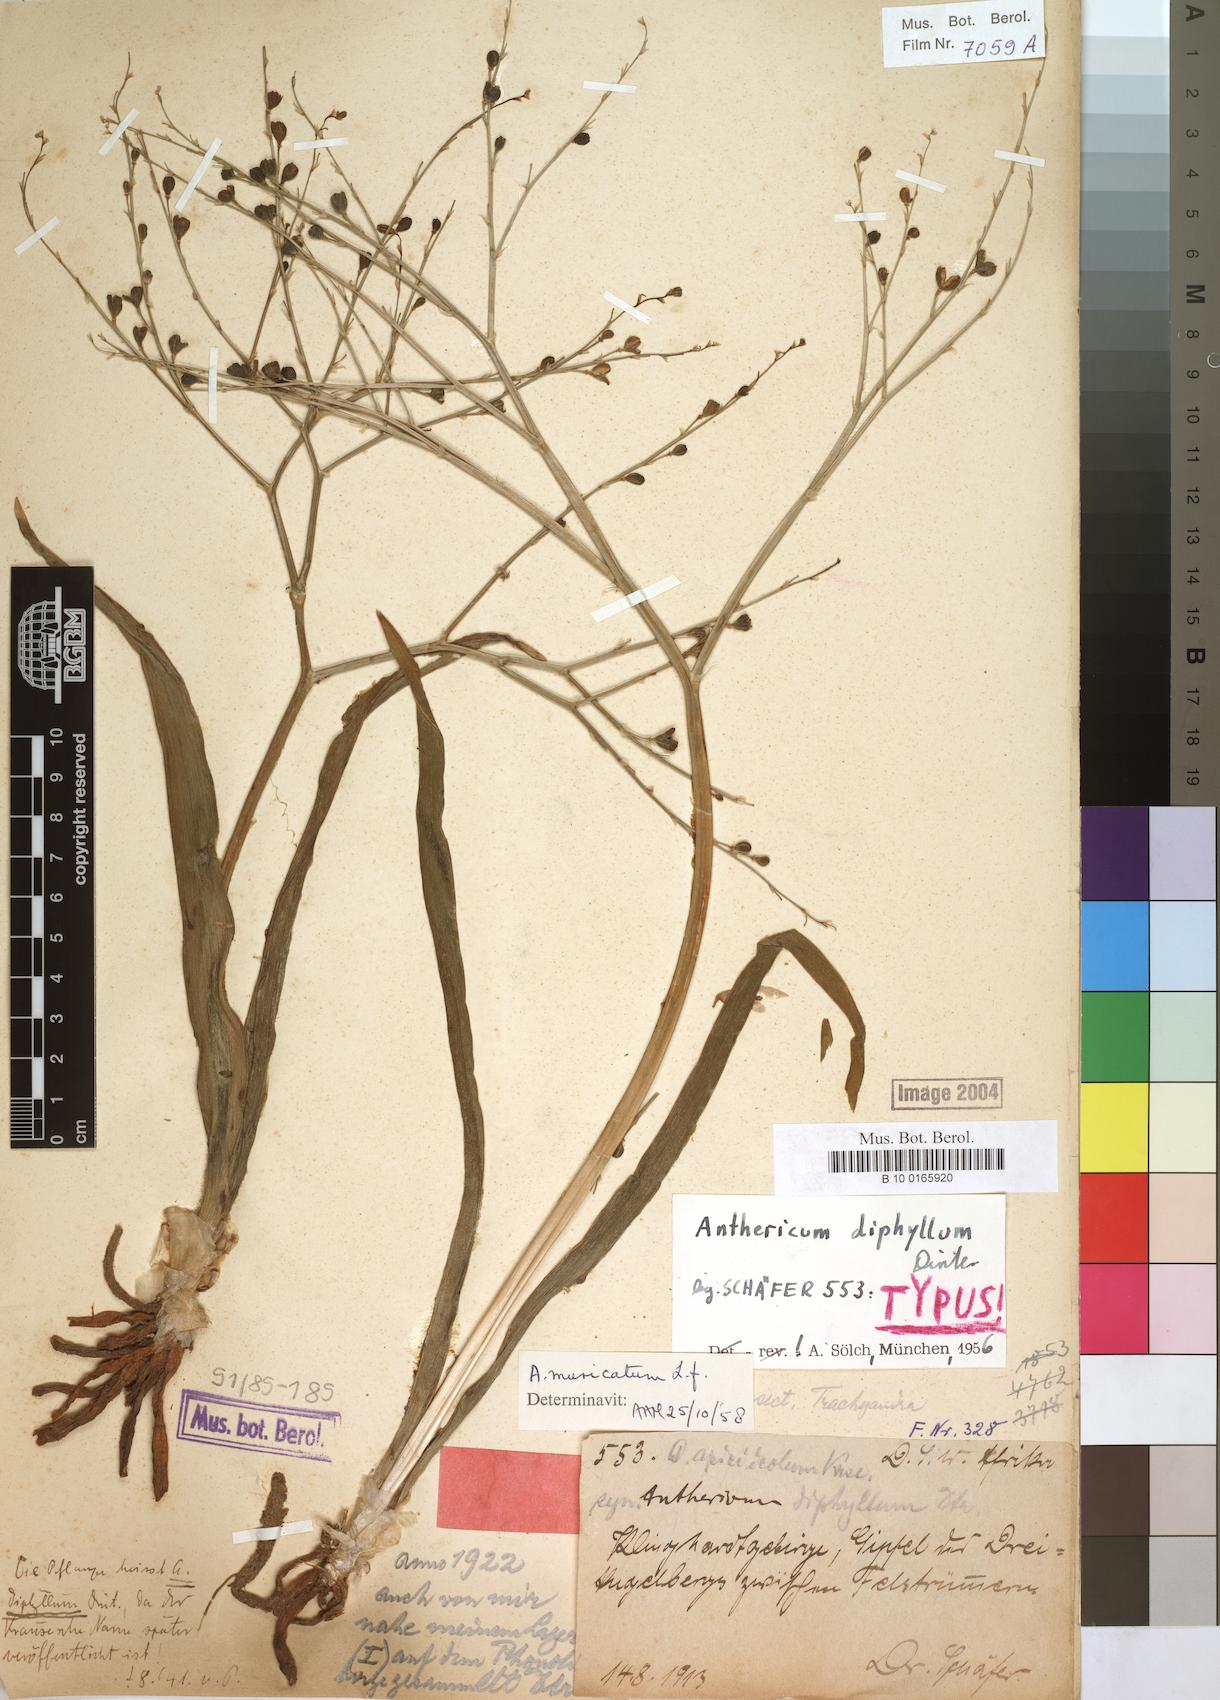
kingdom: Plantae
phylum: Tracheophyta
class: Liliopsida
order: Asparagales
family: Asphodelaceae
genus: Trachyandra
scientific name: Trachyandra muricata
